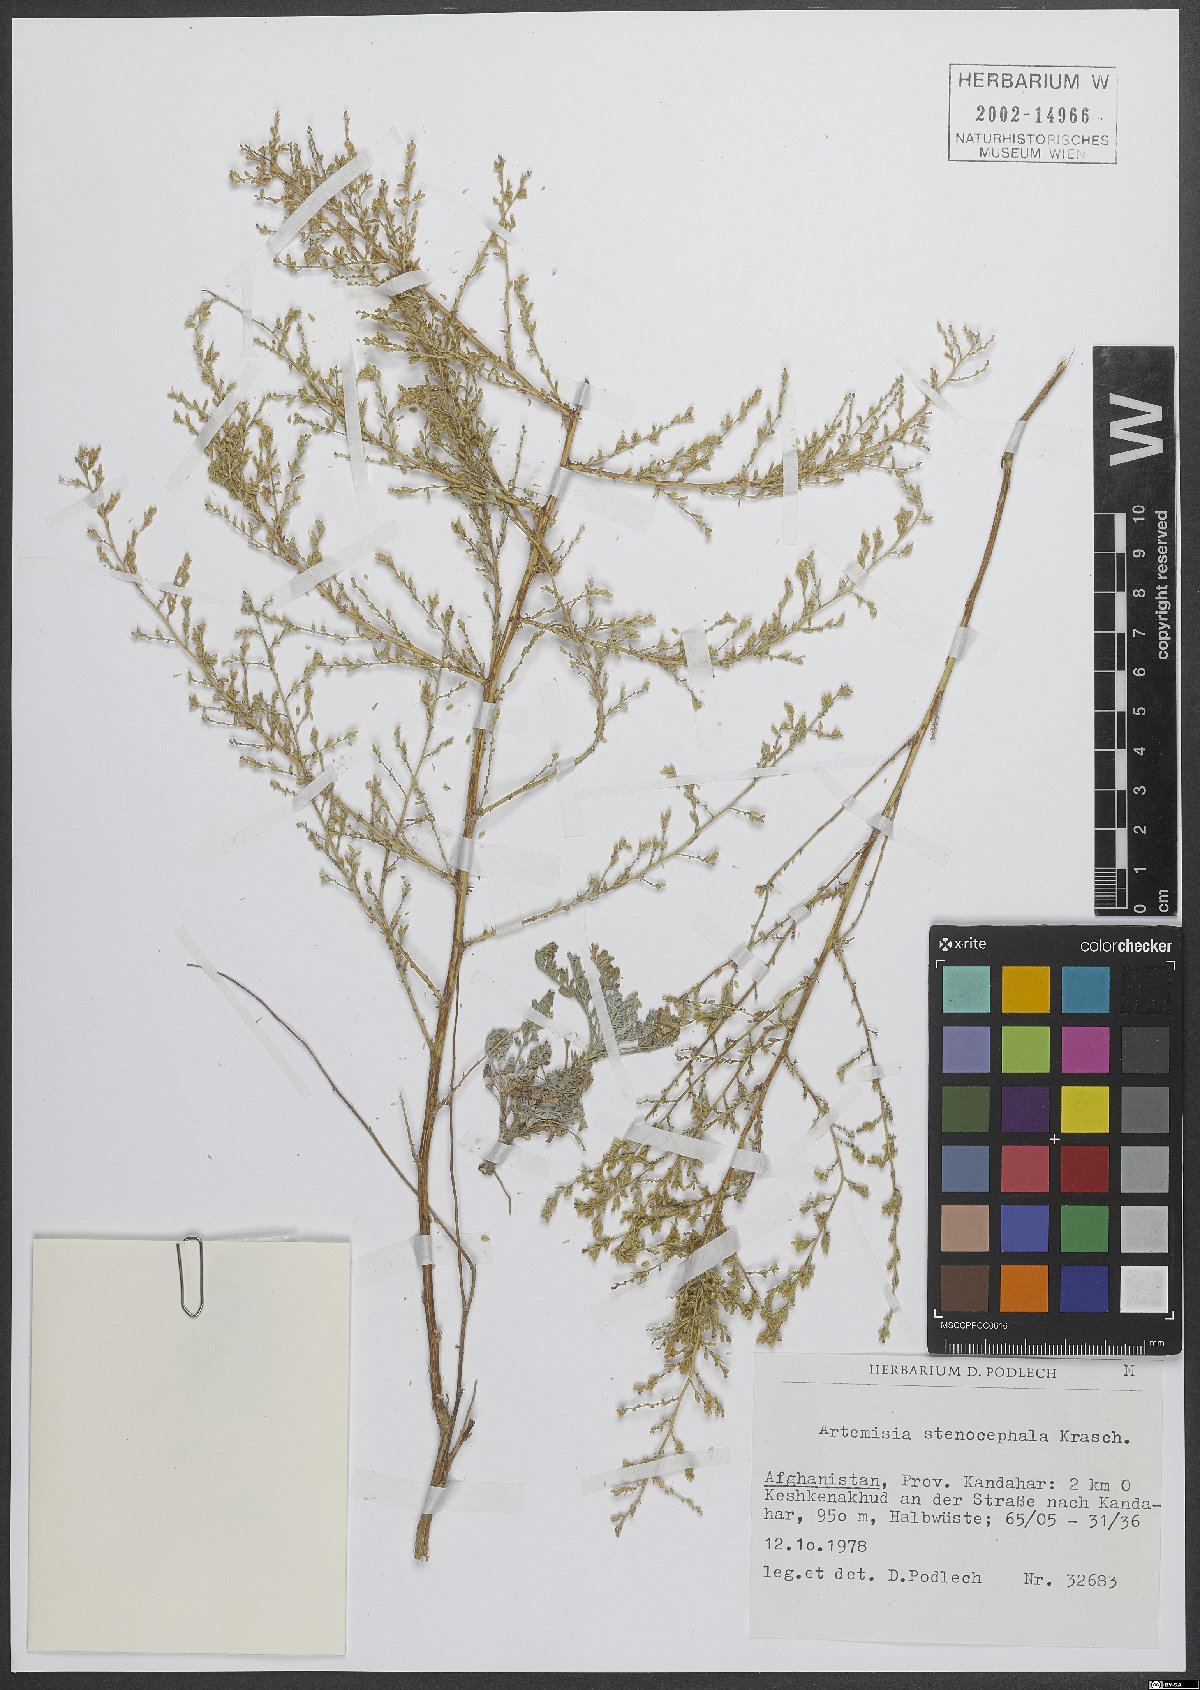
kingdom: Plantae
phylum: Tracheophyta
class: Magnoliopsida
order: Asterales
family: Asteraceae
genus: Artemisia
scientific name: Artemisia stenocephala
